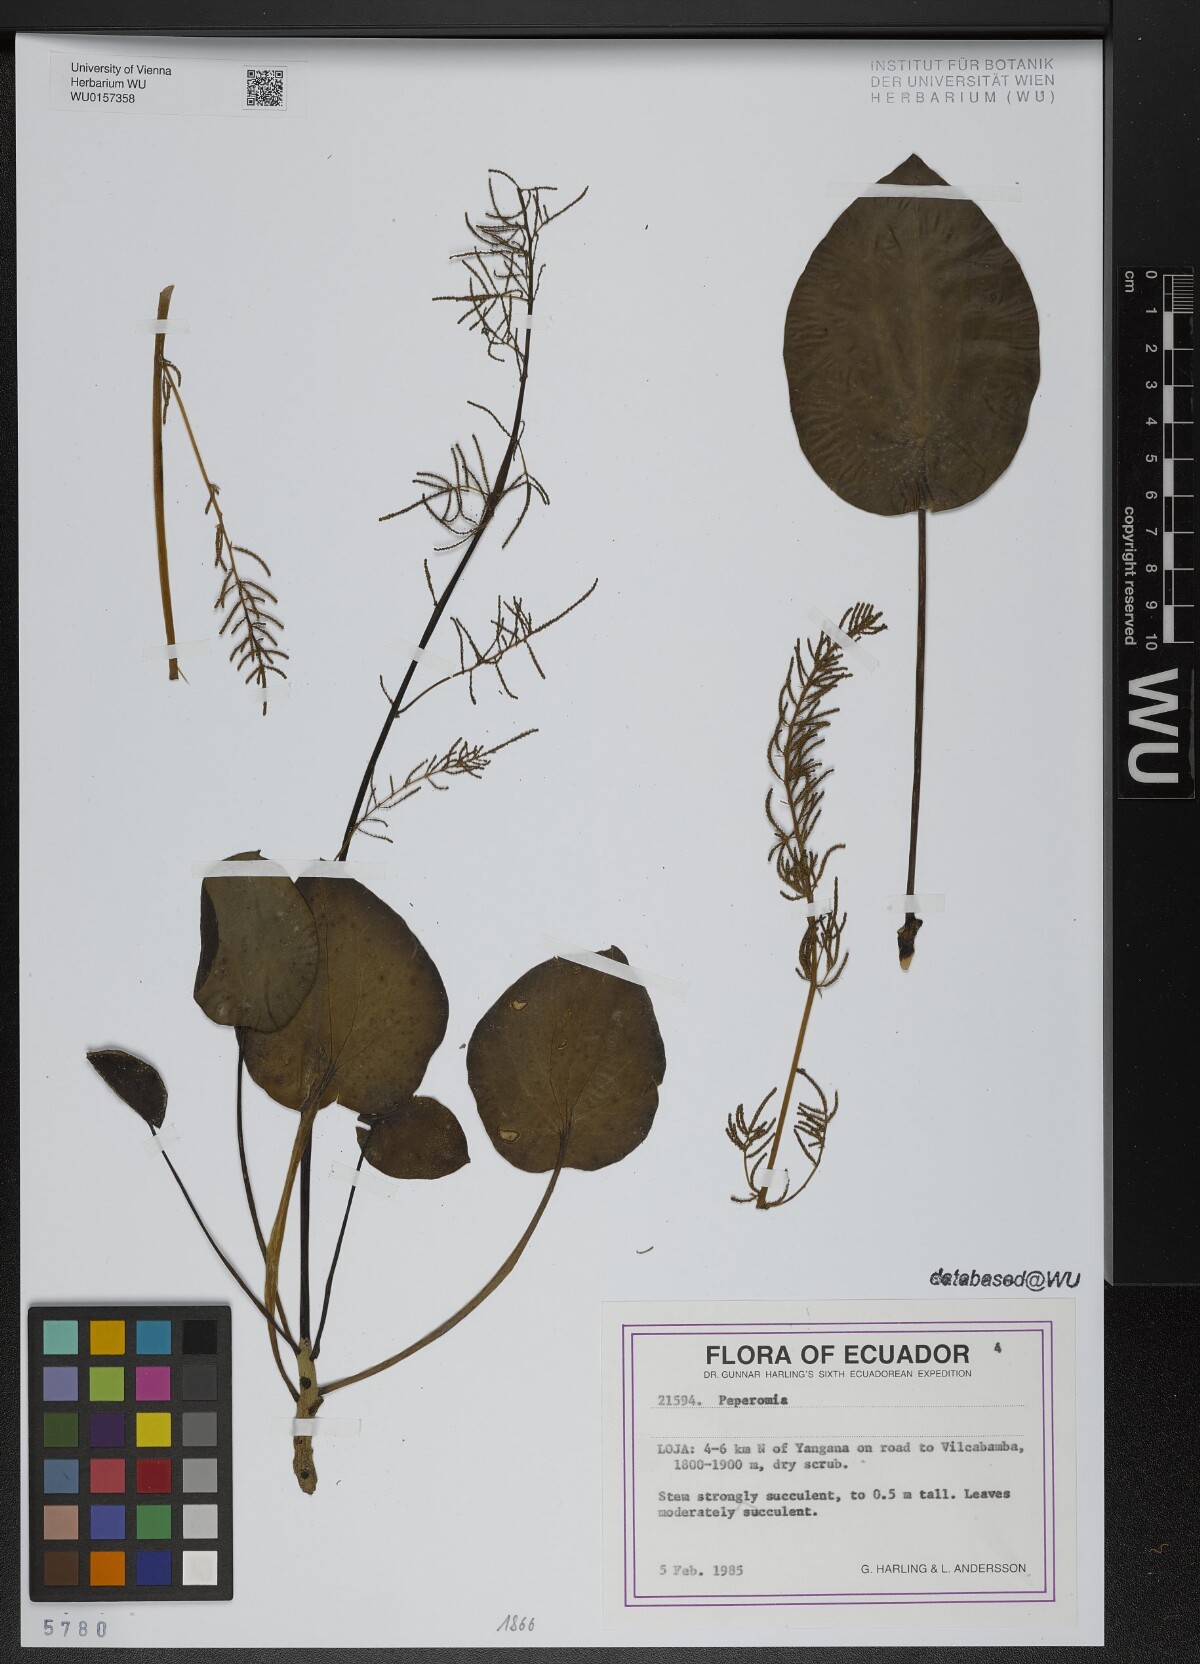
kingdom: Plantae
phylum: Tracheophyta
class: Magnoliopsida
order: Piperales
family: Piperaceae
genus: Peperomia
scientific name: Peperomia
